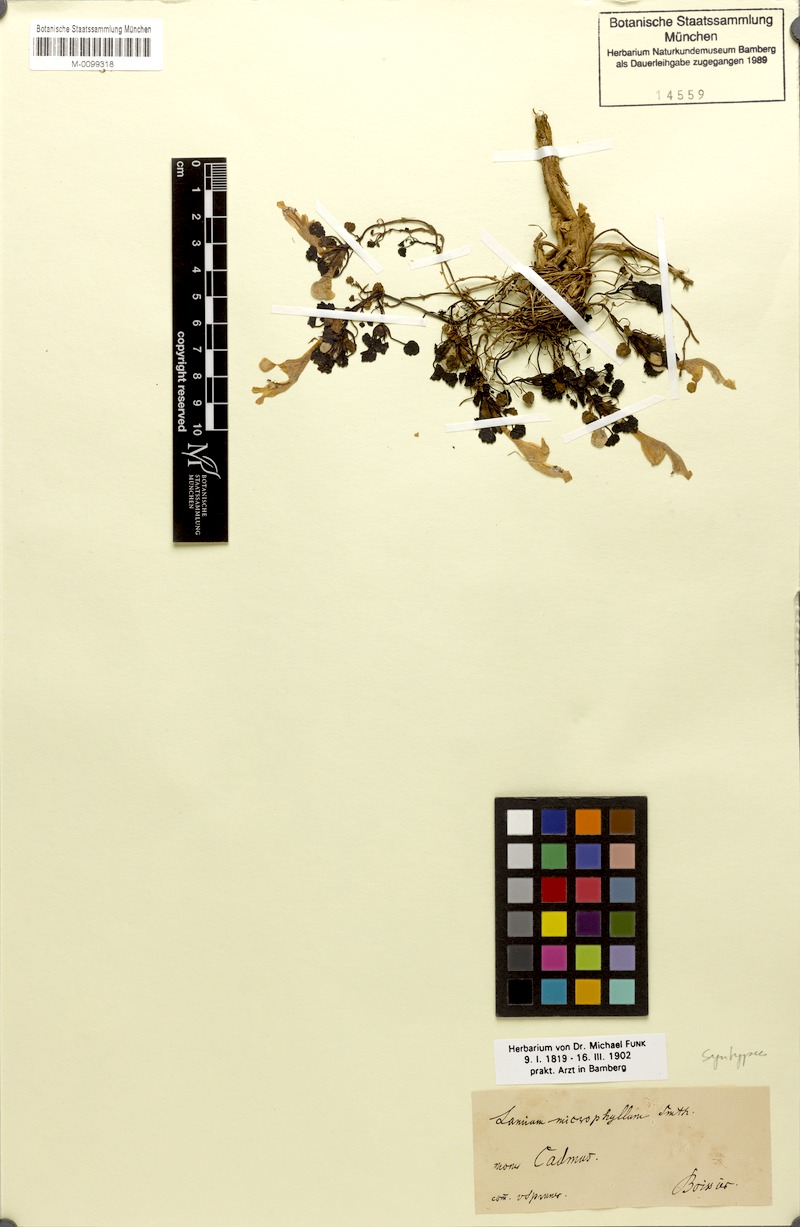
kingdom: Plantae
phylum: Tracheophyta
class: Magnoliopsida
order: Lamiales
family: Lamiaceae
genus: Lamium
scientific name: Lamium garganicum
